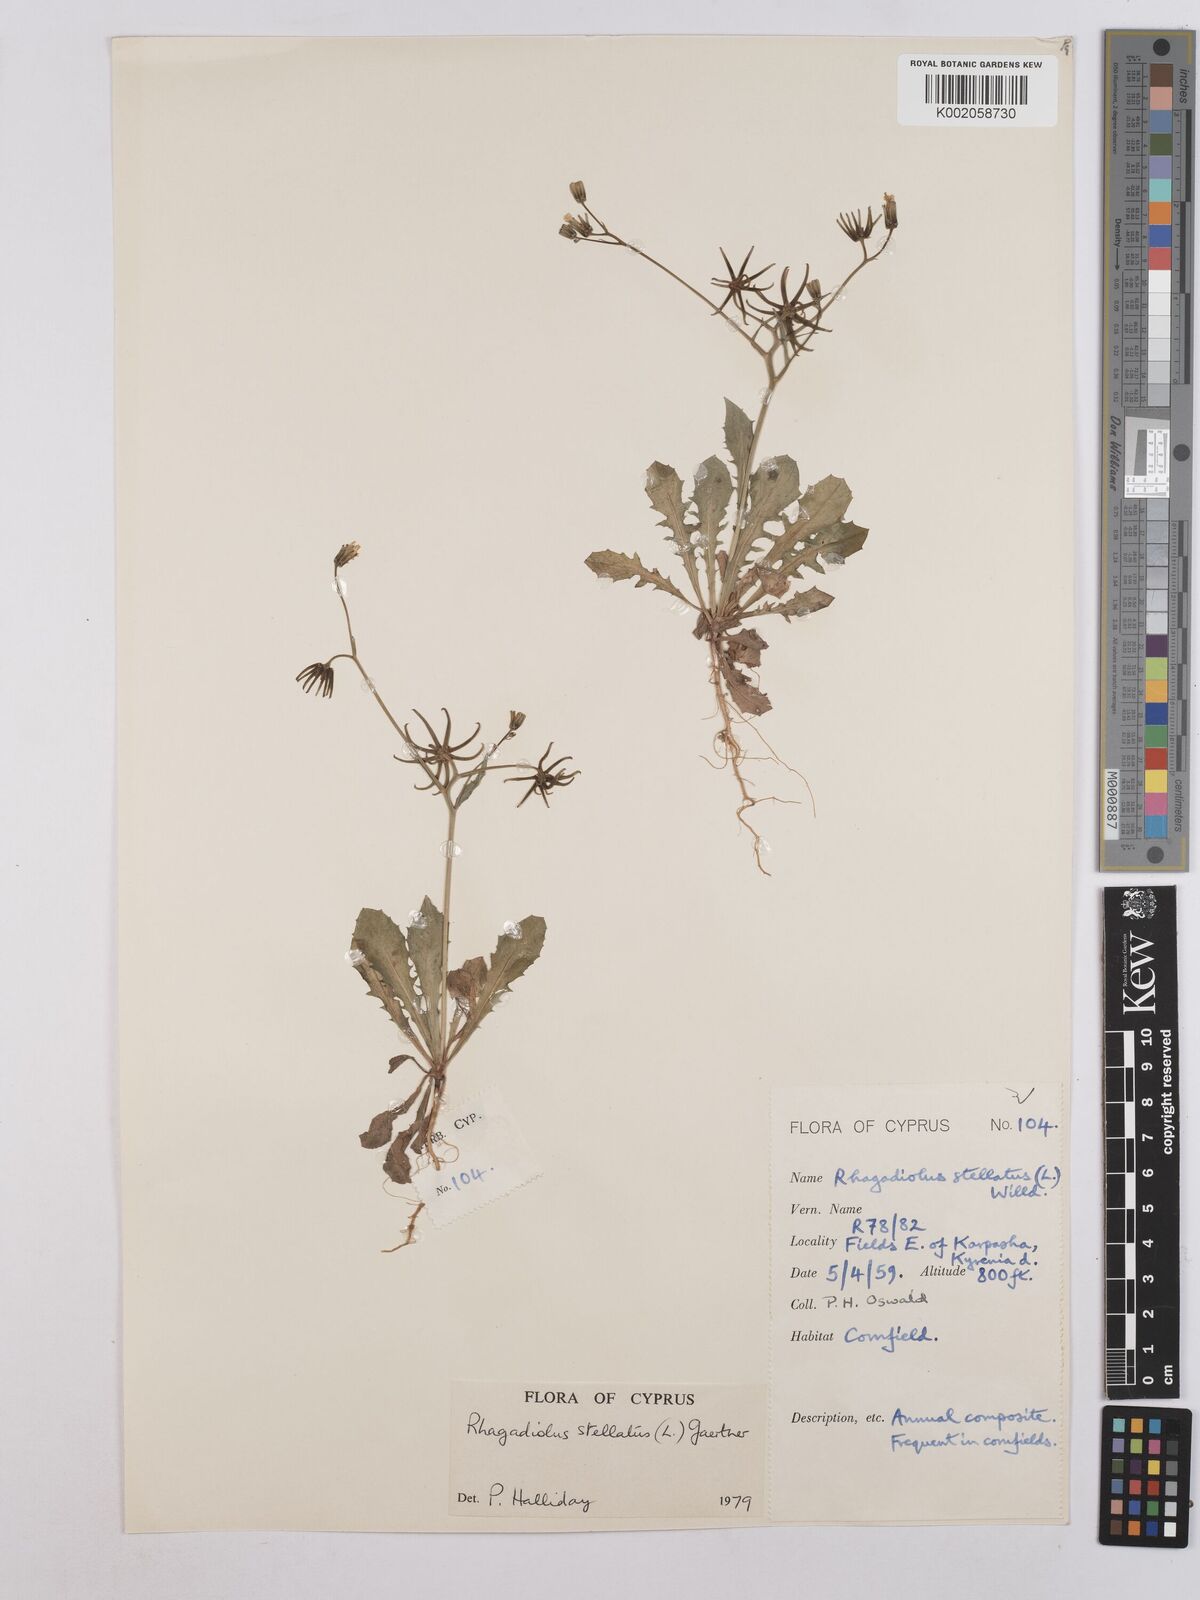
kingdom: Plantae
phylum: Tracheophyta
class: Magnoliopsida
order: Asterales
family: Asteraceae
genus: Rhagadiolus
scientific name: Rhagadiolus stellatus
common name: Star hawkbit
